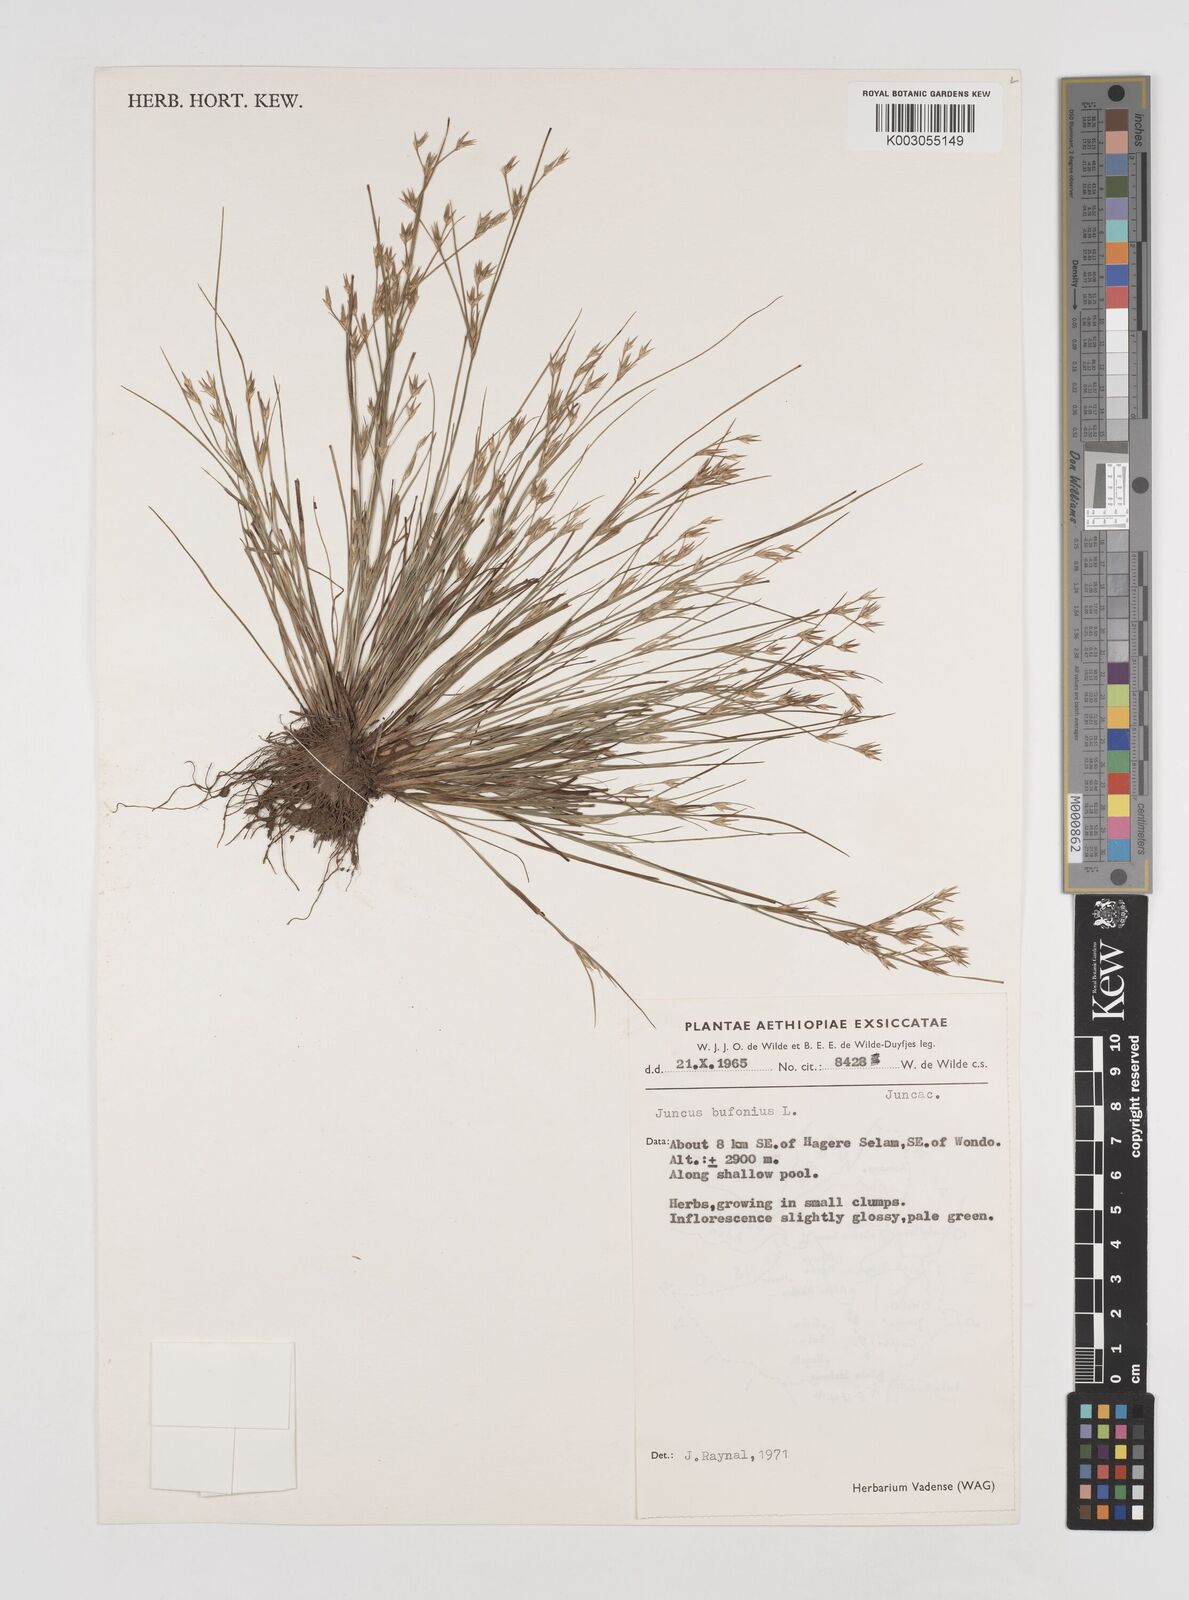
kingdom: Plantae
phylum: Tracheophyta
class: Liliopsida
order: Poales
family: Juncaceae
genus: Juncus
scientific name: Juncus bufonius
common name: Toad rush
